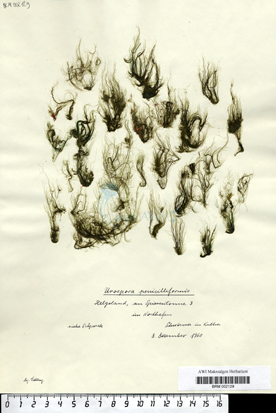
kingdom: Plantae
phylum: Chlorophyta
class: Ulvophyceae
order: Ulotrichales
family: Ulotrichaceae
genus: Urospora
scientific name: Urospora penicilliformis
